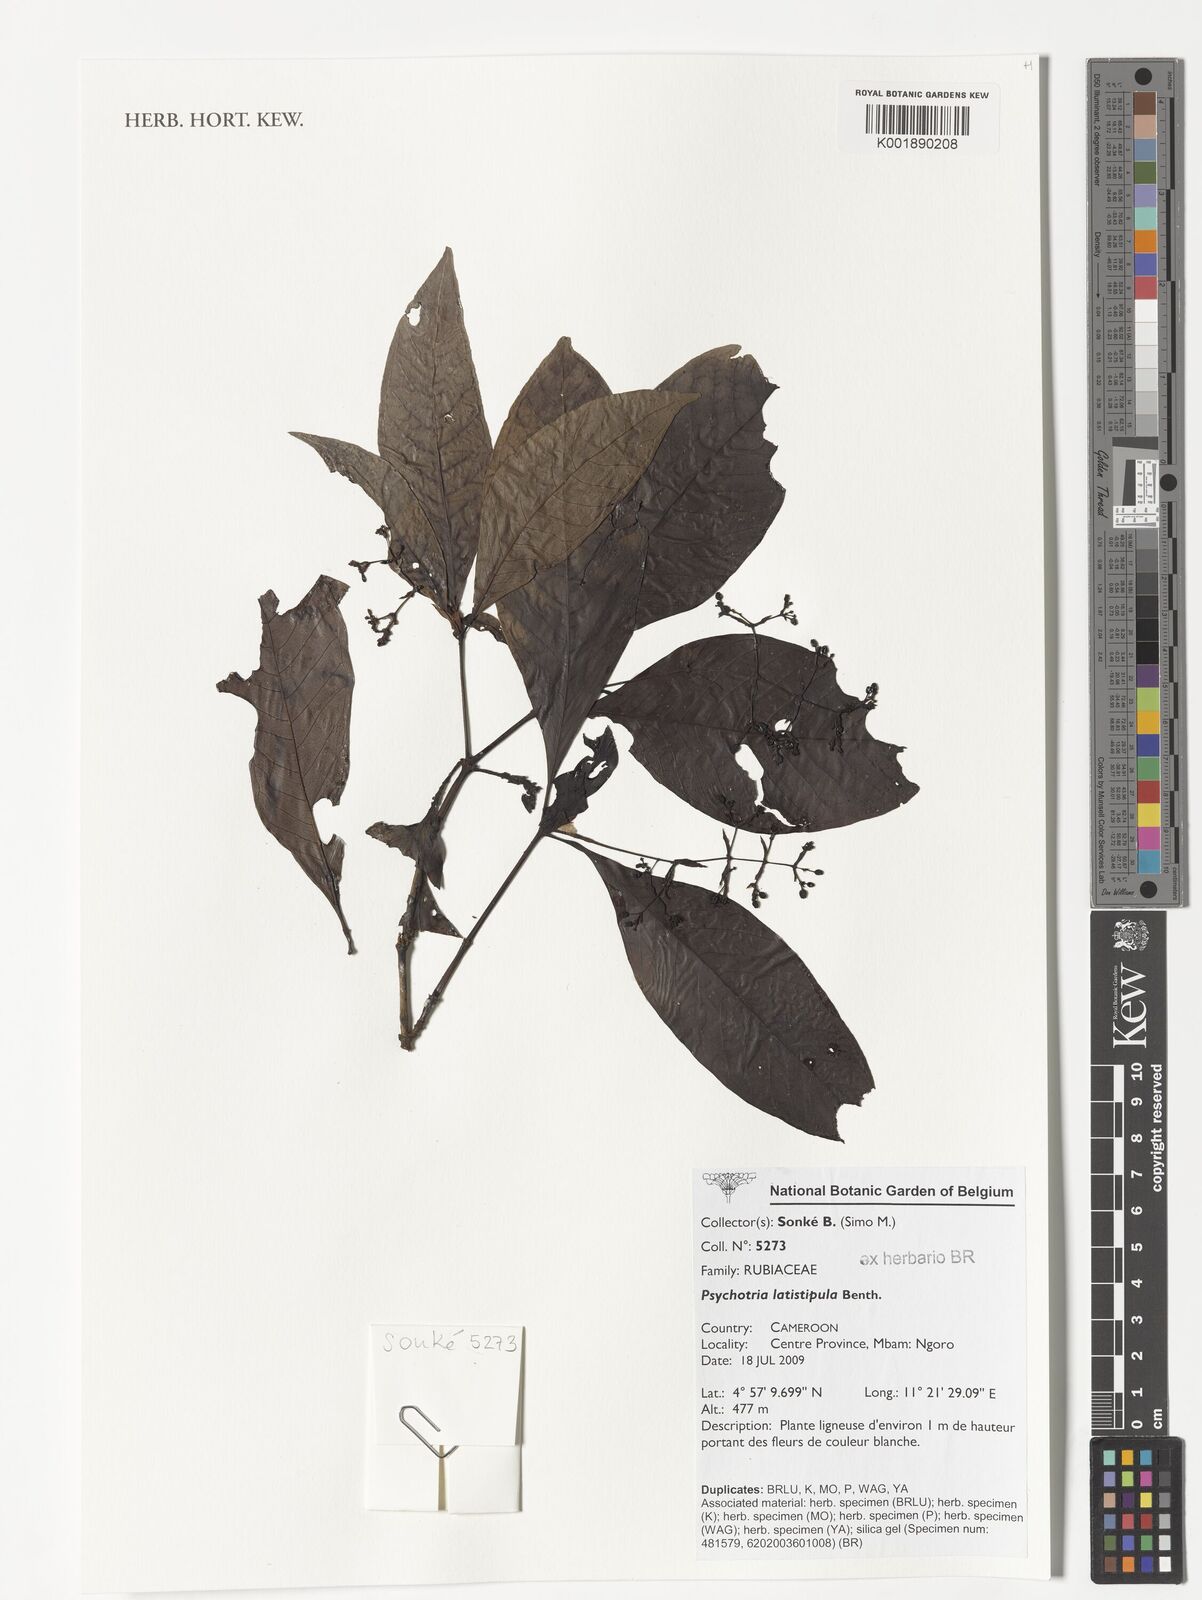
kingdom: Plantae
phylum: Tracheophyta
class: Magnoliopsida
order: Gentianales
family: Rubiaceae
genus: Psychotria
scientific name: Psychotria latistipula
